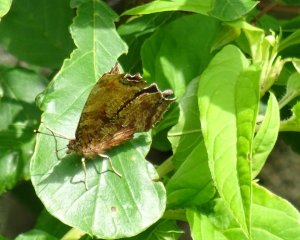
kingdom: Animalia
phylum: Arthropoda
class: Insecta
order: Lepidoptera
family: Nymphalidae
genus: Polygonia
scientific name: Polygonia comma
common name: Eastern Comma
